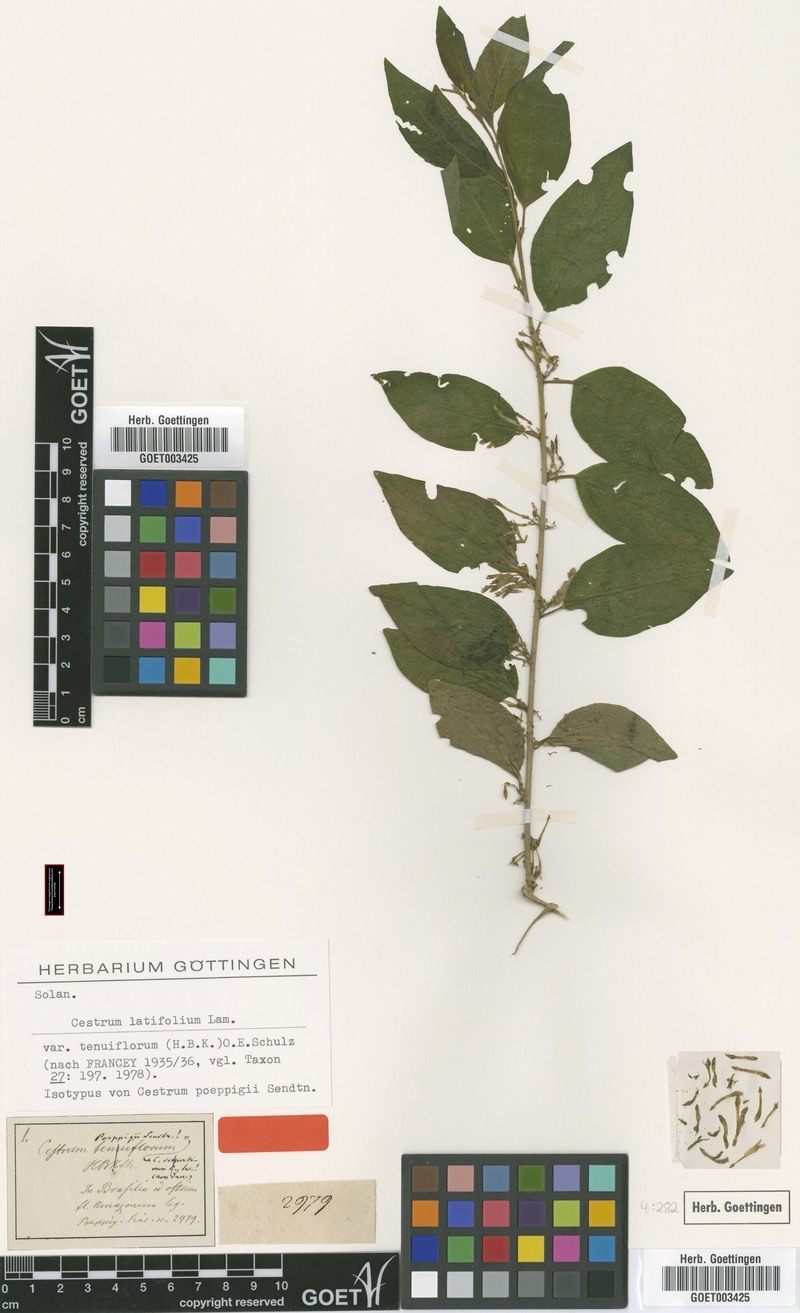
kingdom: Plantae
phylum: Tracheophyta
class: Magnoliopsida
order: Solanales
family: Solanaceae
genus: Cestrum
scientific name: Cestrum latifolium
